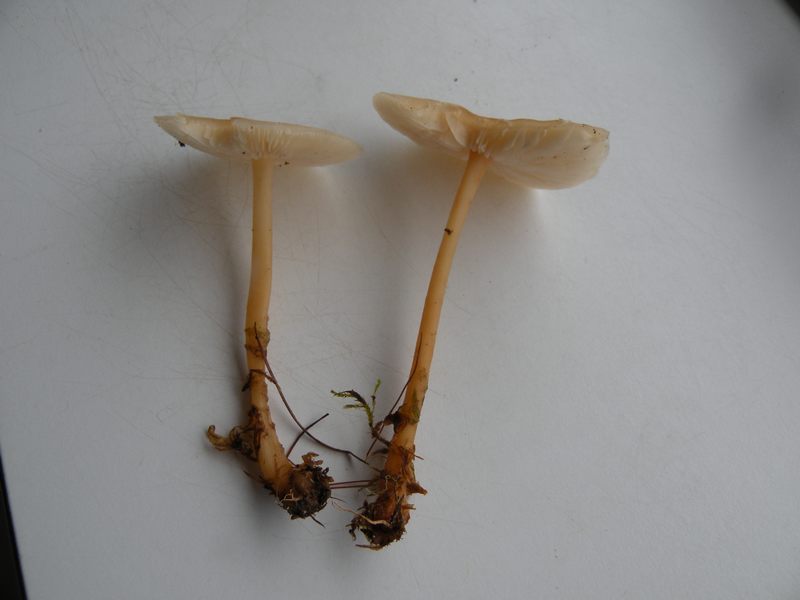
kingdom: Fungi
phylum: Basidiomycota
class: Agaricomycetes
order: Agaricales
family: Omphalotaceae
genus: Gymnopus
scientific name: Gymnopus aquosus
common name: bleg fladhat
